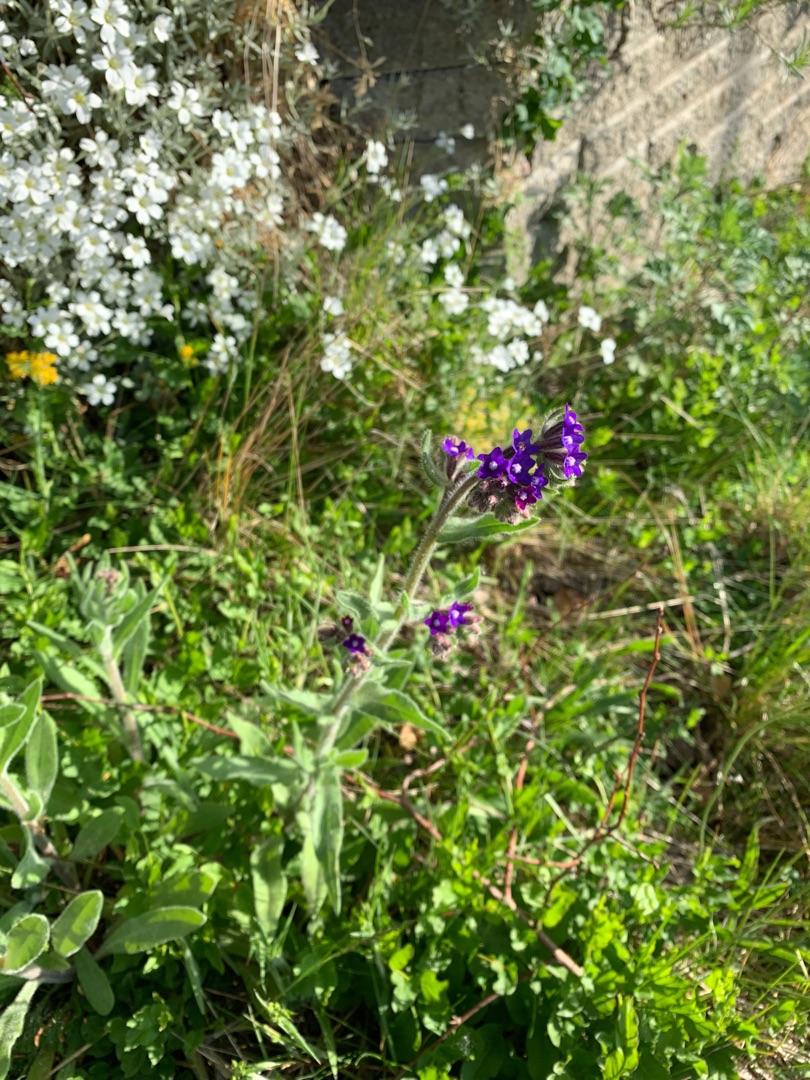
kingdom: Plantae
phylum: Tracheophyta
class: Magnoliopsida
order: Boraginales
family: Boraginaceae
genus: Anchusa
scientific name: Anchusa officinalis
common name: Læge-oksetunge
